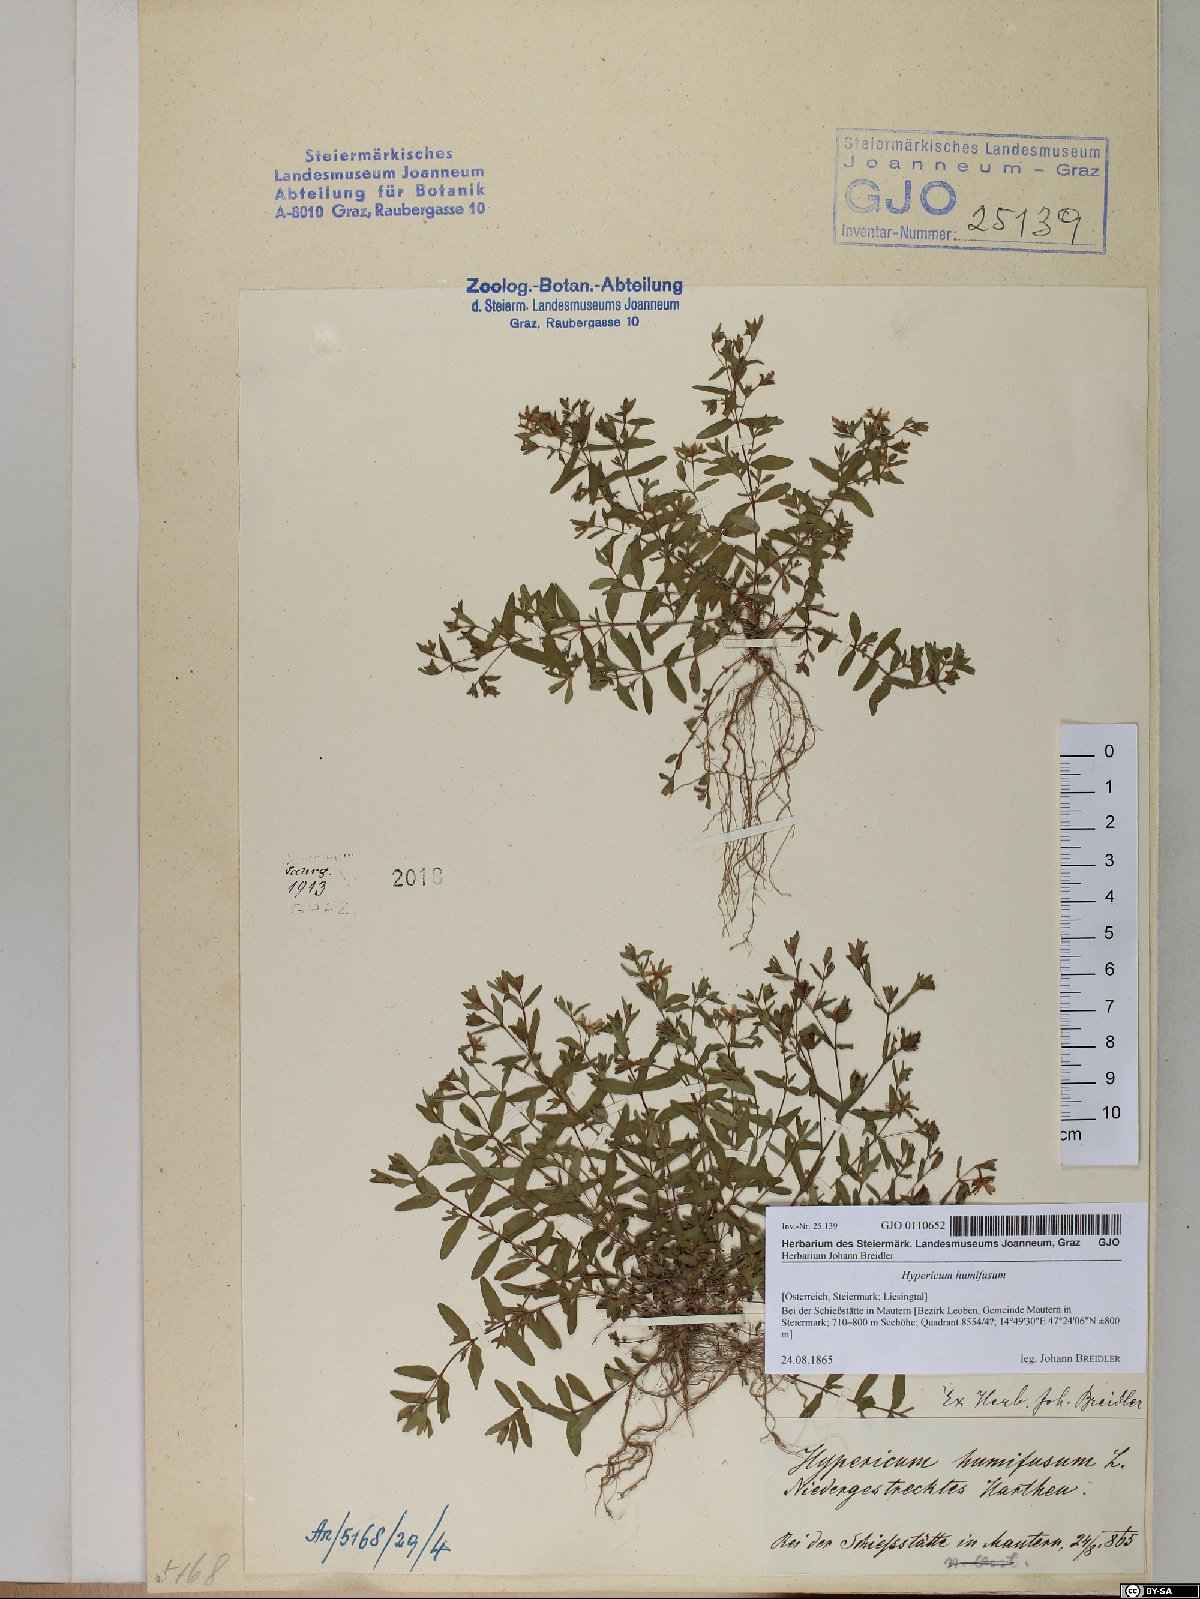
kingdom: Plantae
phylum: Tracheophyta
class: Magnoliopsida
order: Malpighiales
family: Hypericaceae
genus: Hypericum
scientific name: Hypericum humifusum
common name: Trailing st. john's-wort
